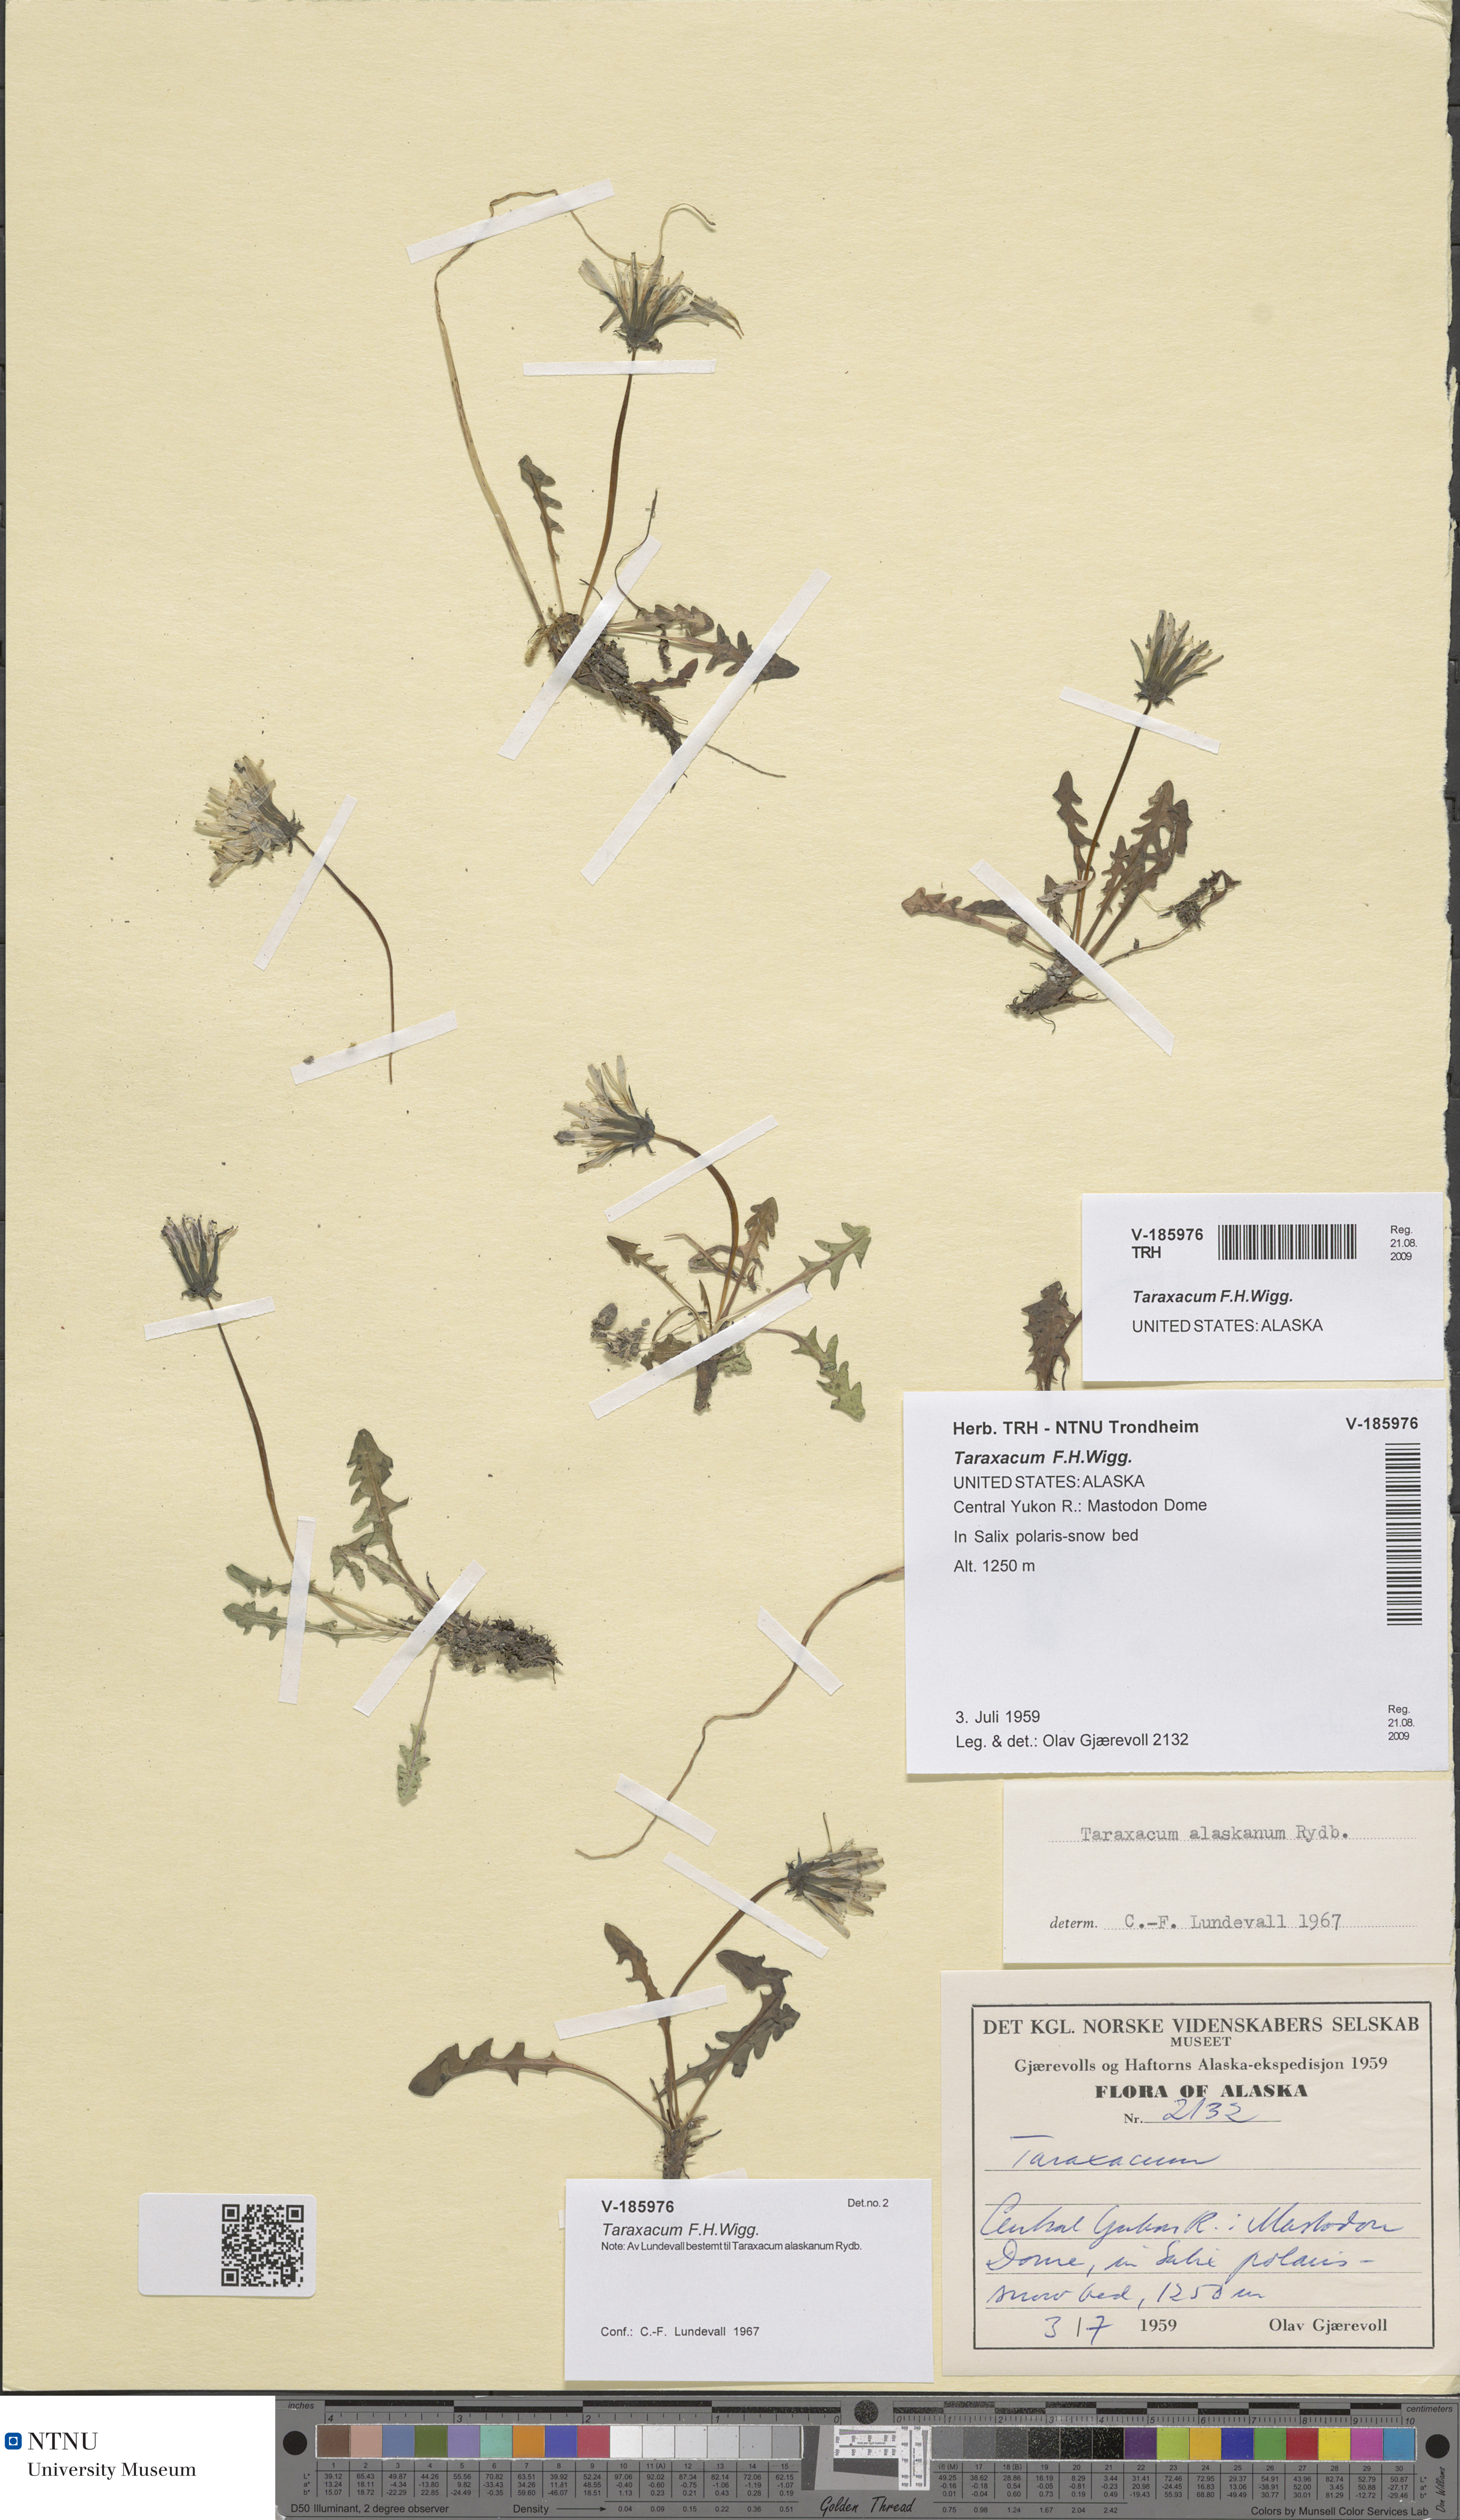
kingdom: Plantae
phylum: Tracheophyta
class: Magnoliopsida
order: Asterales
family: Asteraceae
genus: Taraxacum
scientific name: Taraxacum
